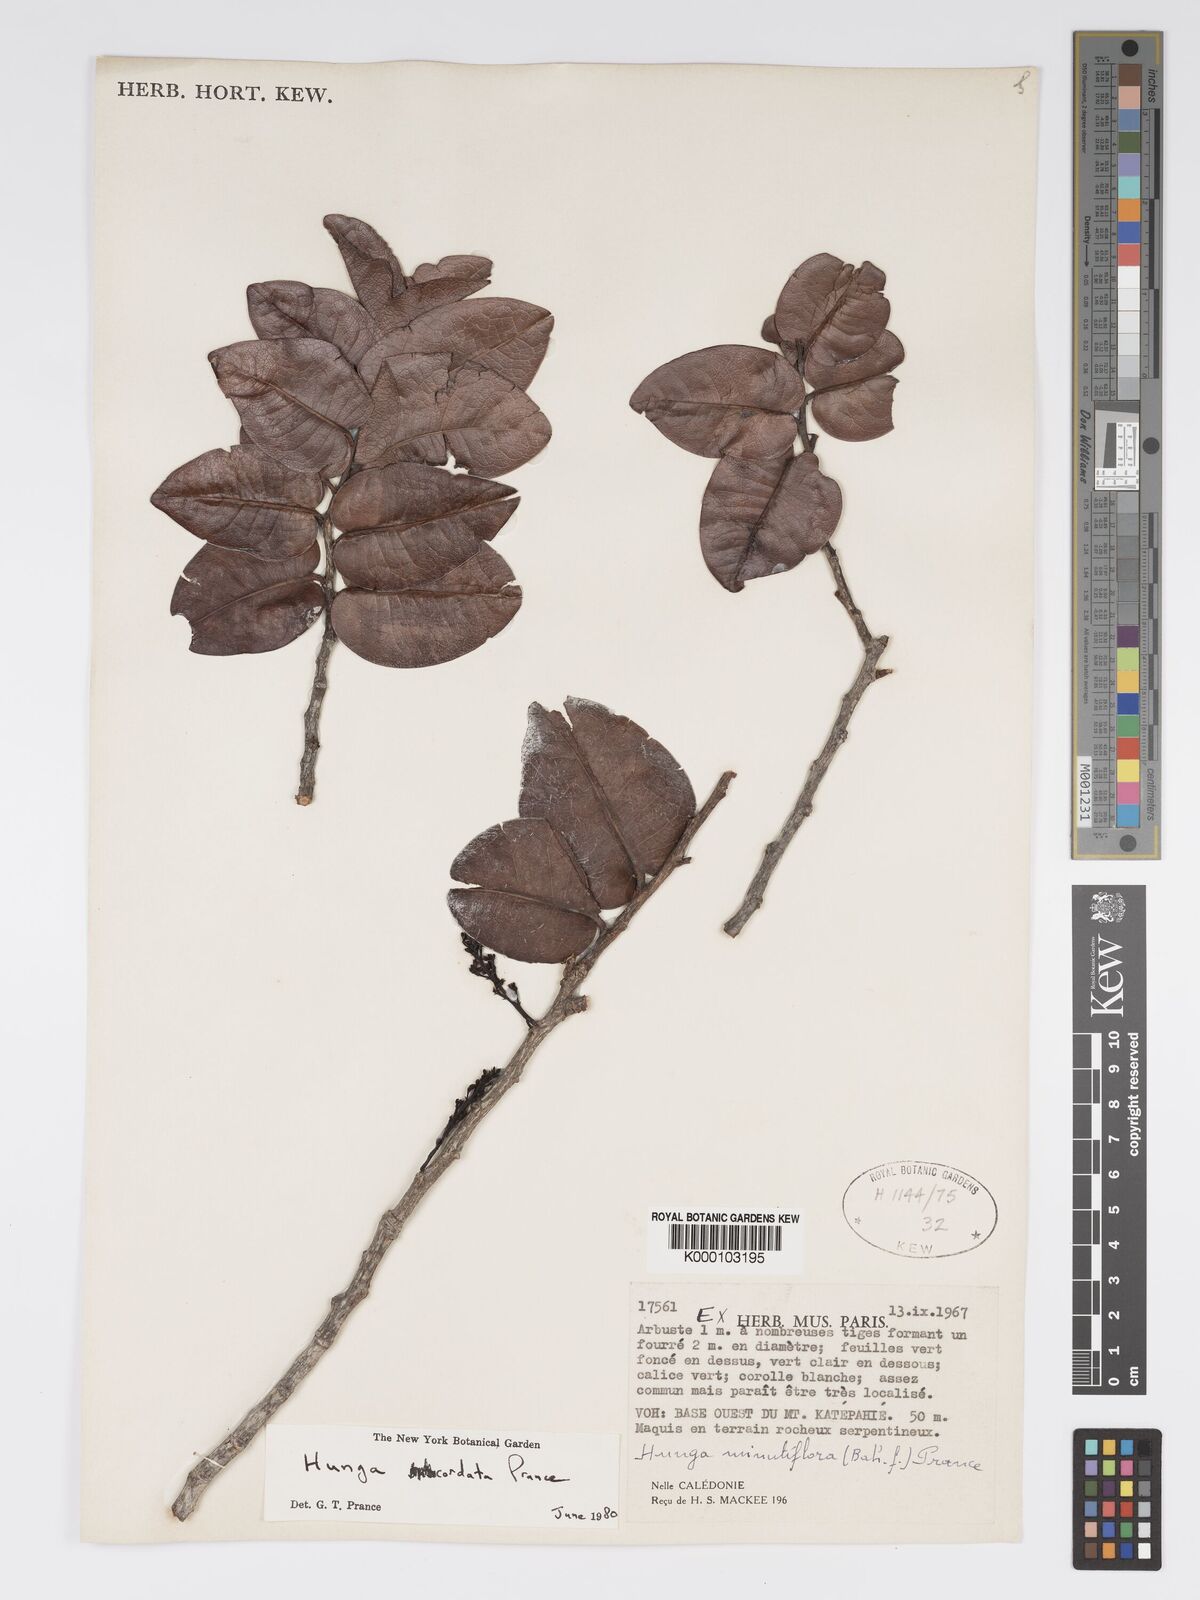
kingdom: Plantae
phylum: Tracheophyta
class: Magnoliopsida
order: Malpighiales
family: Chrysobalanaceae
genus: Hunga
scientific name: Hunga cordata
